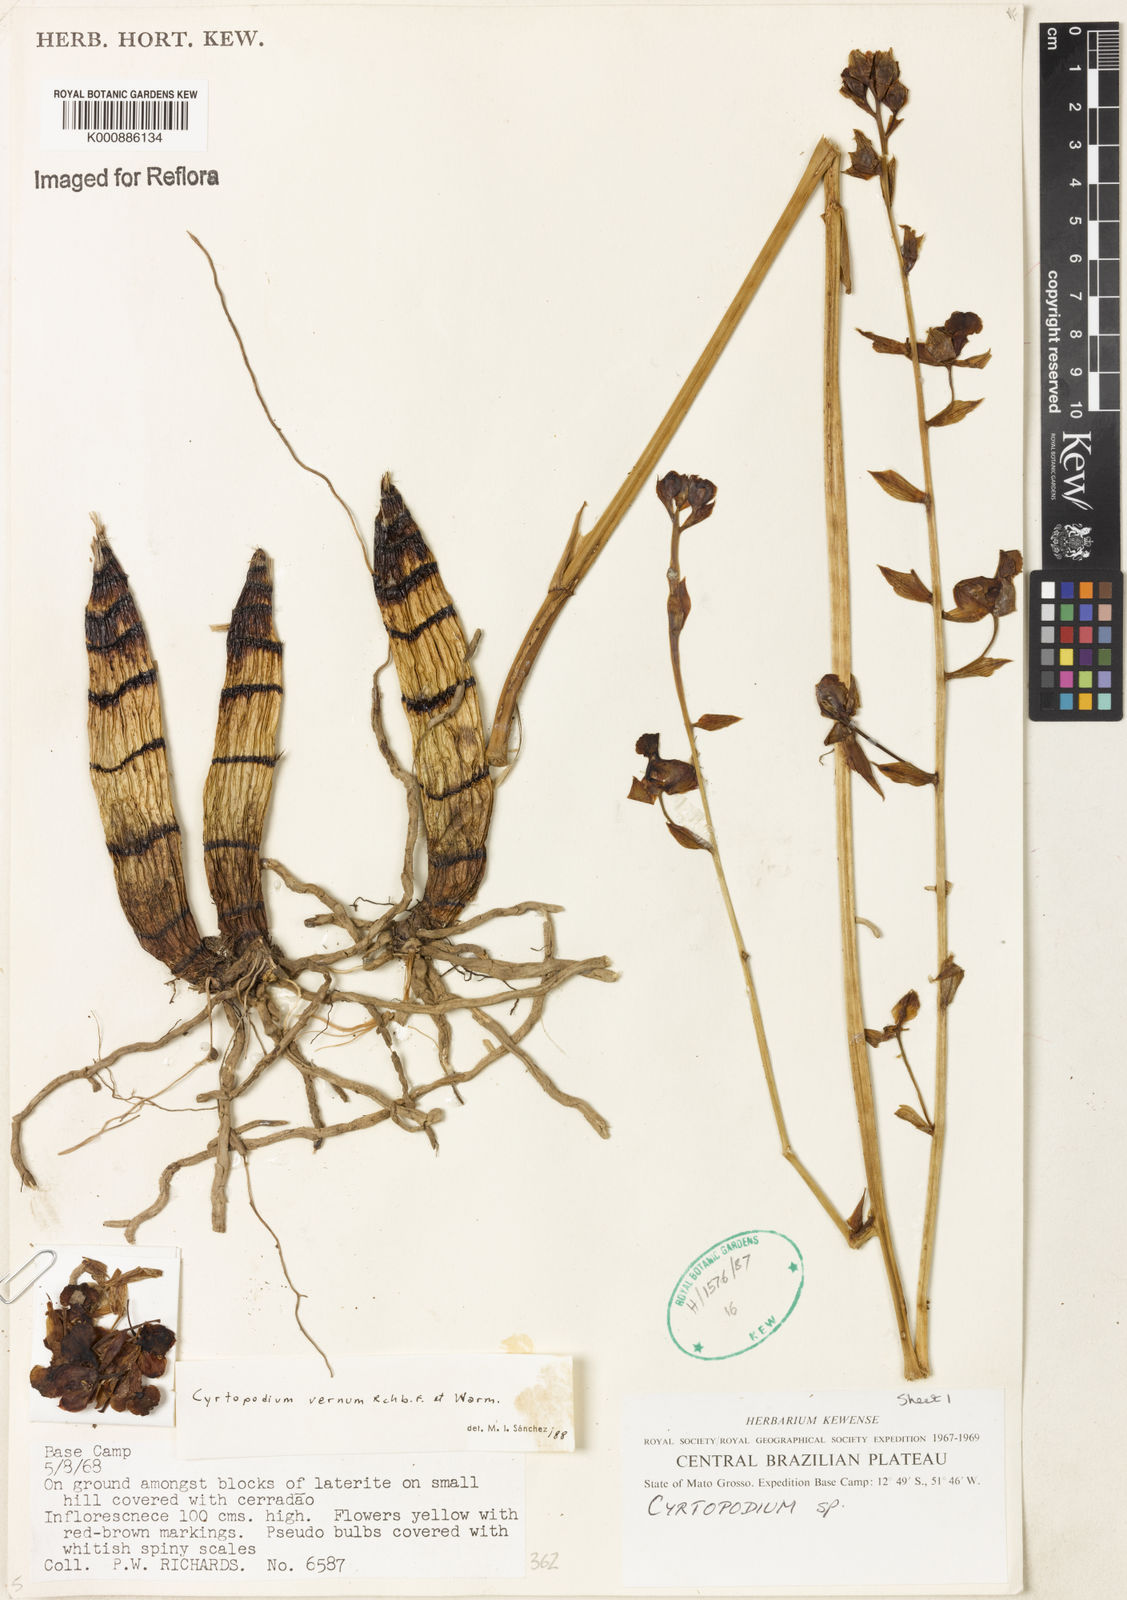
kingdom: Plantae
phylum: Tracheophyta
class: Liliopsida
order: Asparagales
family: Orchidaceae
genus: Cyrtopodium
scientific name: Cyrtopodium vernum
